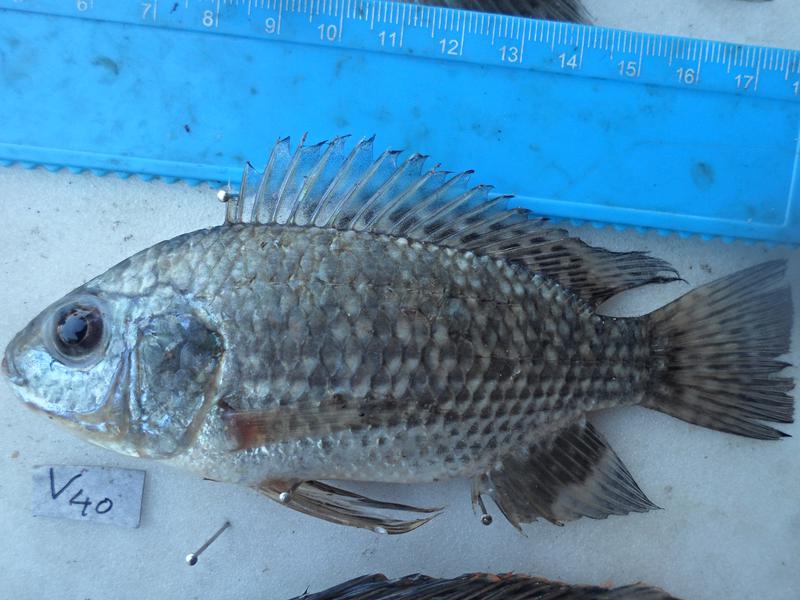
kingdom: Animalia
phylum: Chordata
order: Perciformes
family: Cichlidae
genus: Oreochromis
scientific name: Oreochromis leucostictus
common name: Blue spotted tilapia
